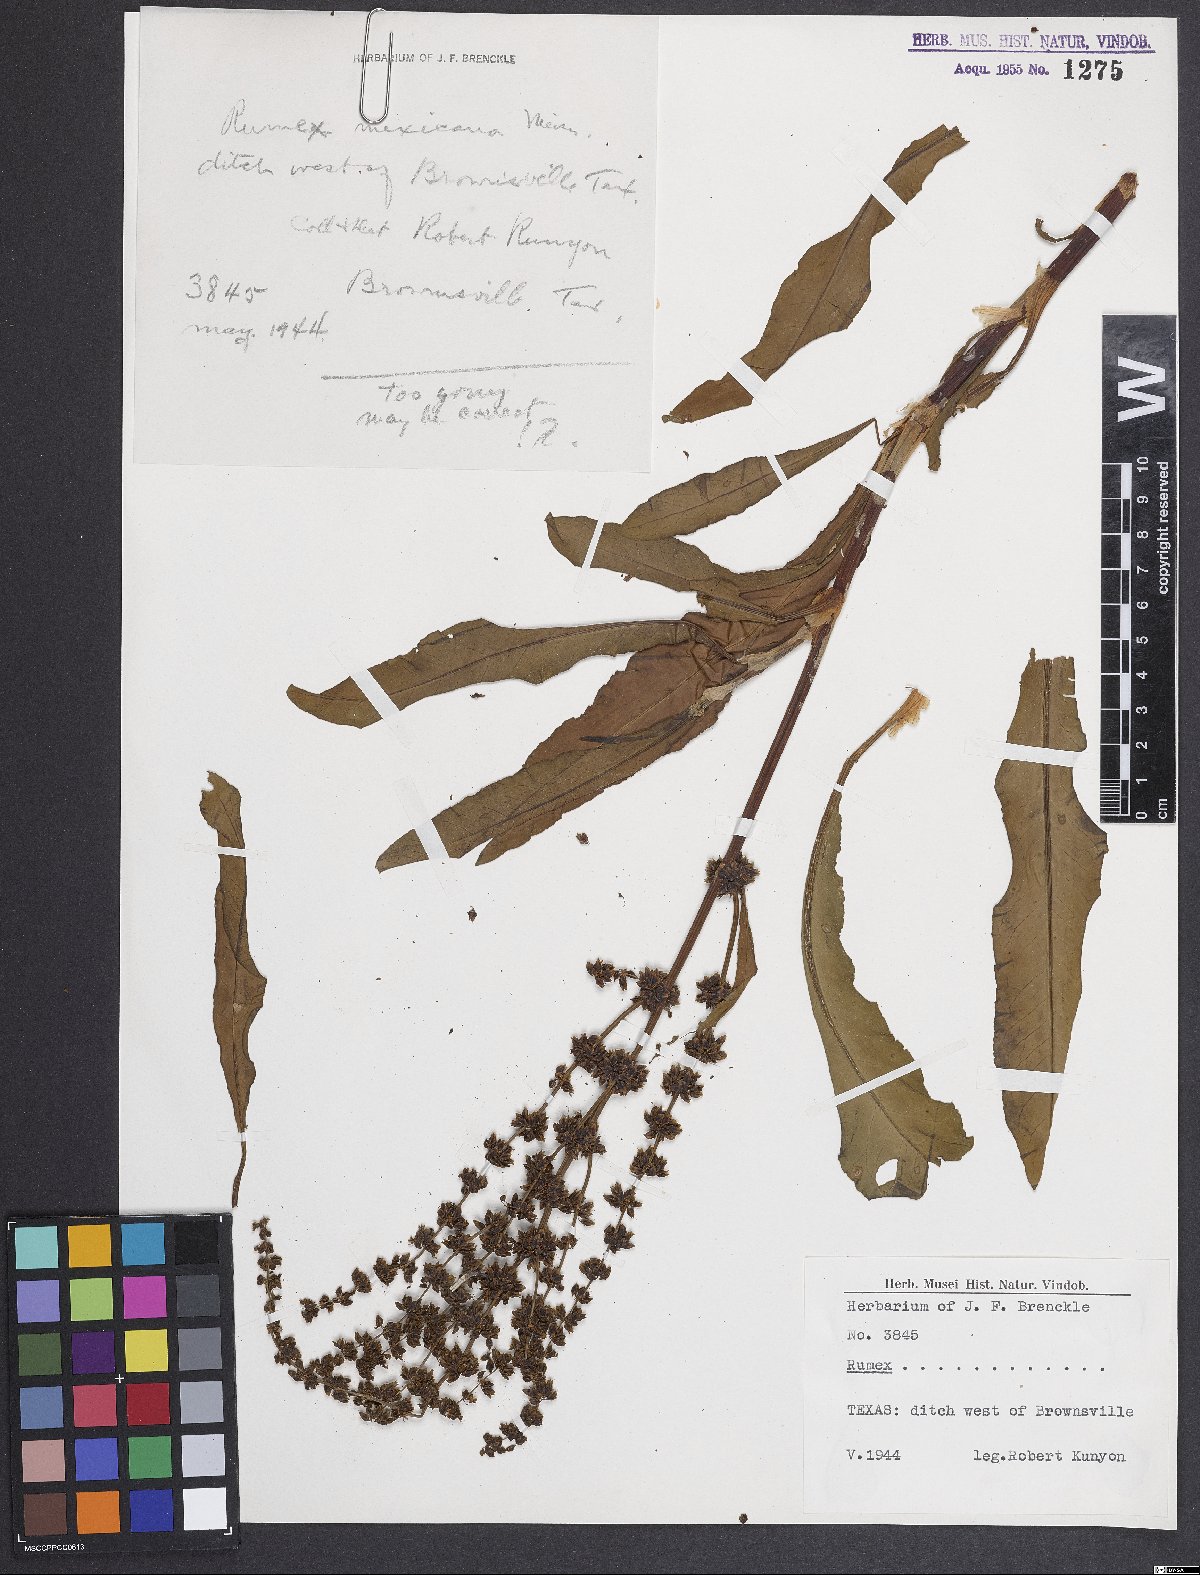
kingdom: Plantae
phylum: Tracheophyta
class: Magnoliopsida
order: Caryophyllales
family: Polygonaceae
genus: Rumex
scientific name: Rumex triangulivalvis
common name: Triangular-valve dock
